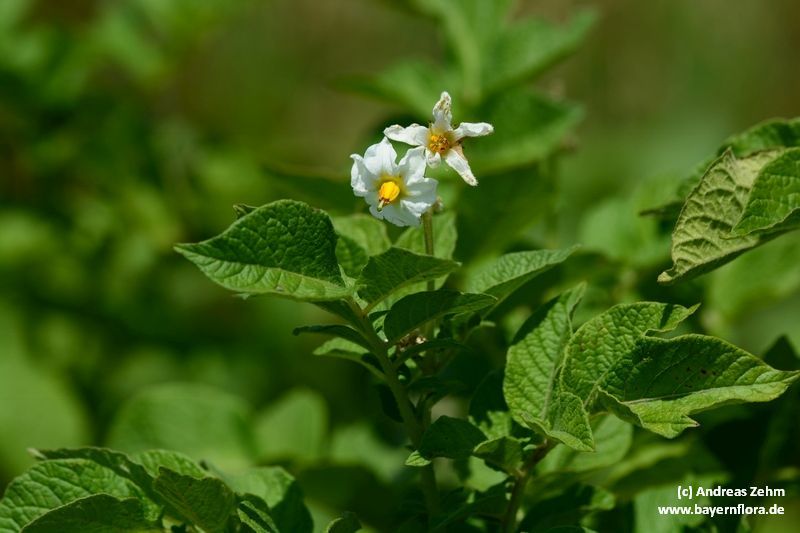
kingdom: Plantae
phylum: Tracheophyta
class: Magnoliopsida
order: Solanales
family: Solanaceae
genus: Solanum
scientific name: Solanum tuberosum
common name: Potato
